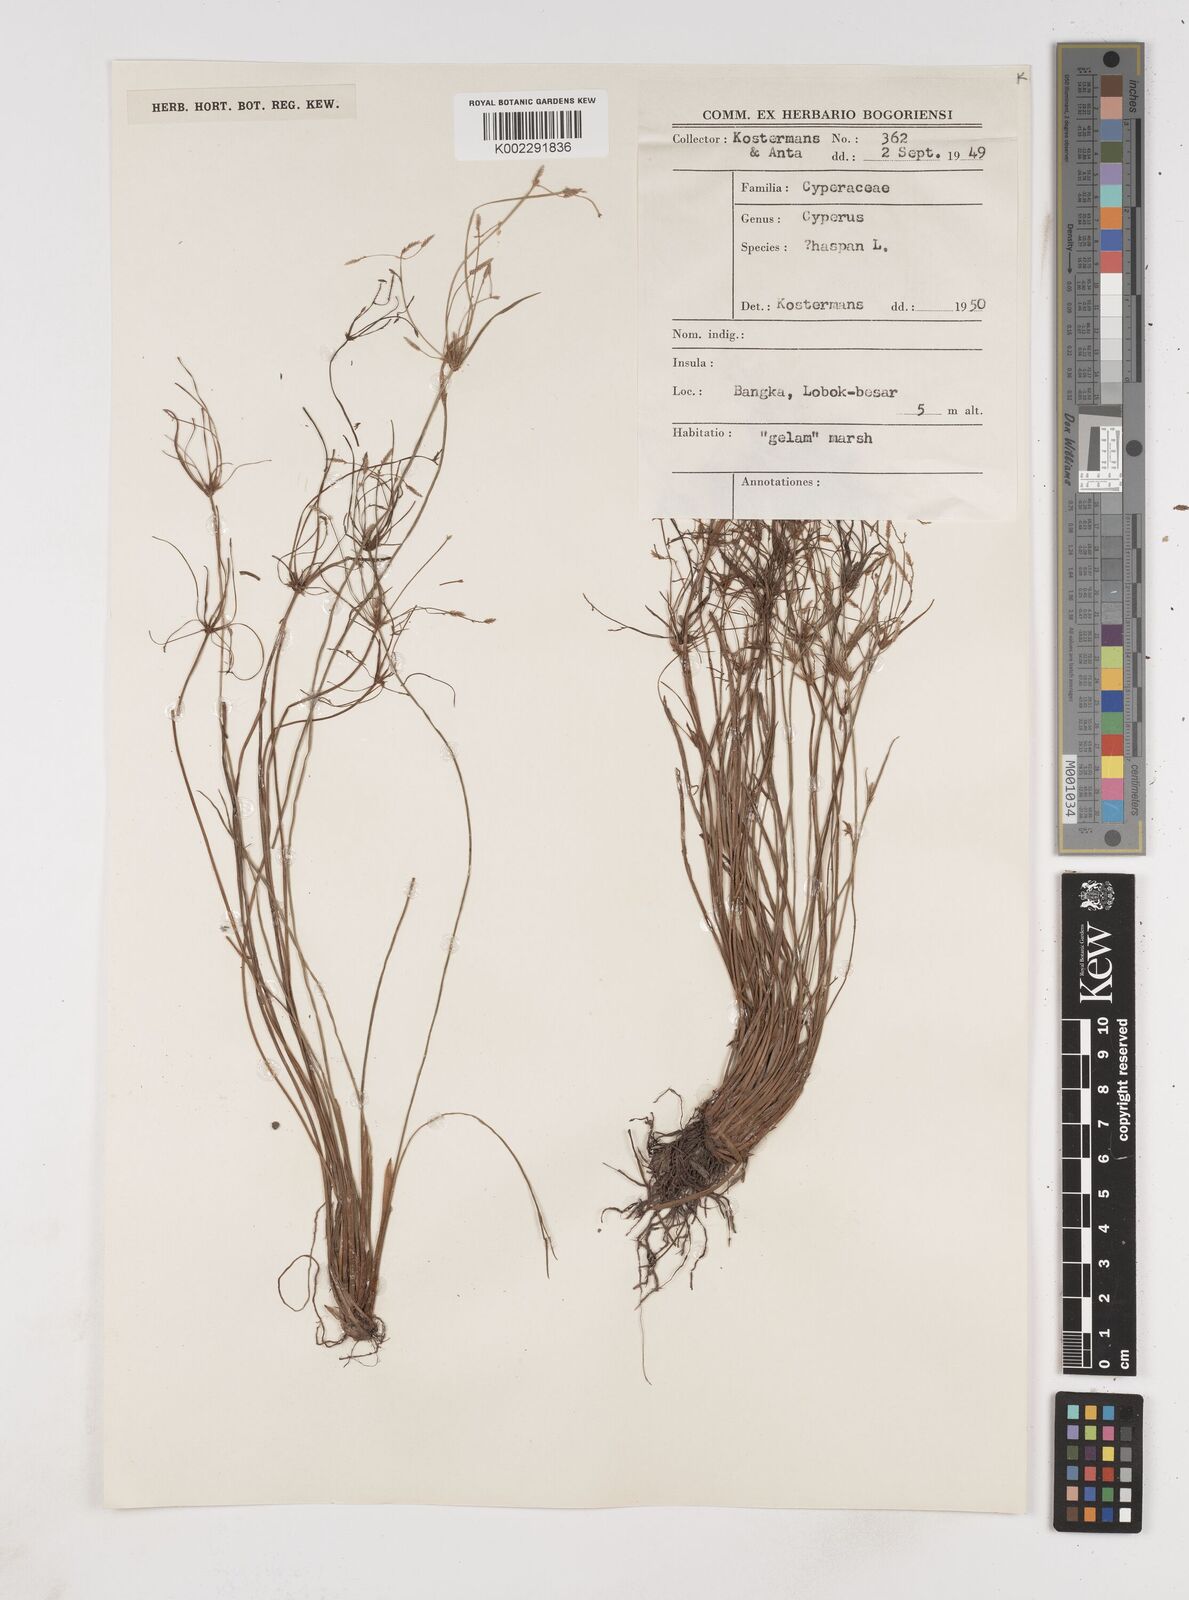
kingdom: Plantae
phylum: Tracheophyta
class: Liliopsida
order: Poales
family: Cyperaceae
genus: Cyperus
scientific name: Cyperus haspan
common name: Haspan flatsedge
